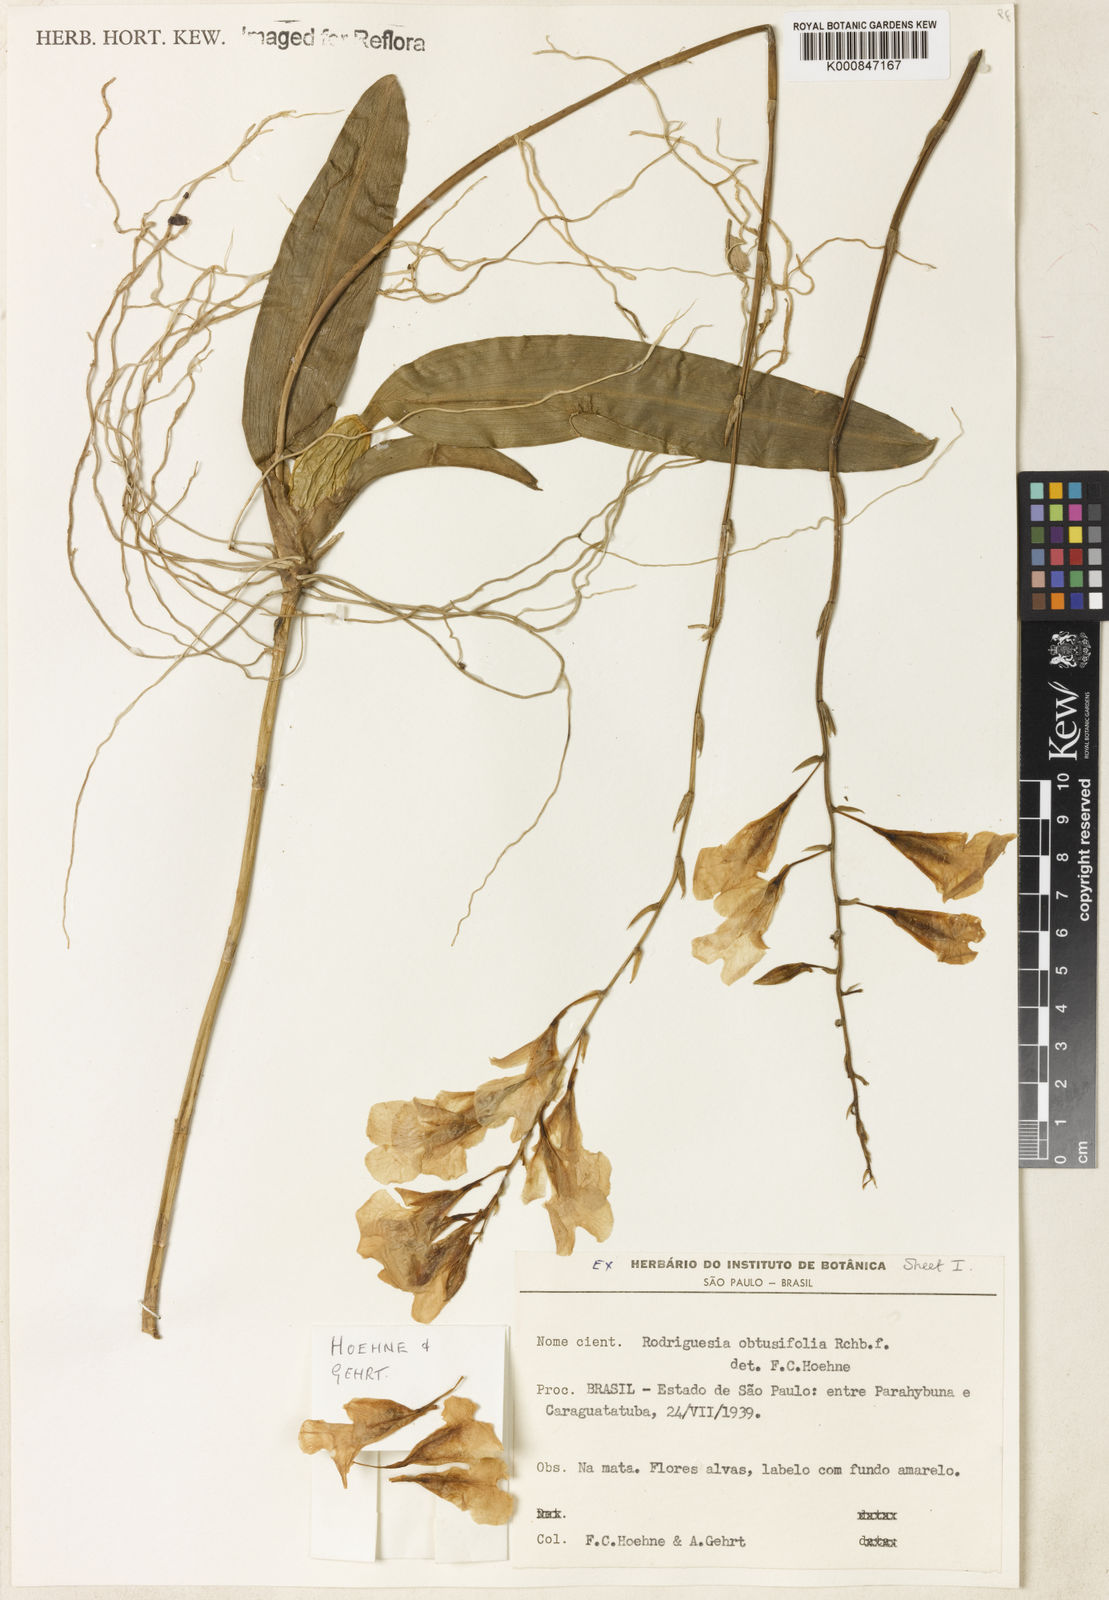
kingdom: Plantae
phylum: Tracheophyta
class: Liliopsida
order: Asparagales
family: Orchidaceae
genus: Rodriguezia
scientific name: Rodriguezia obtusifolia
